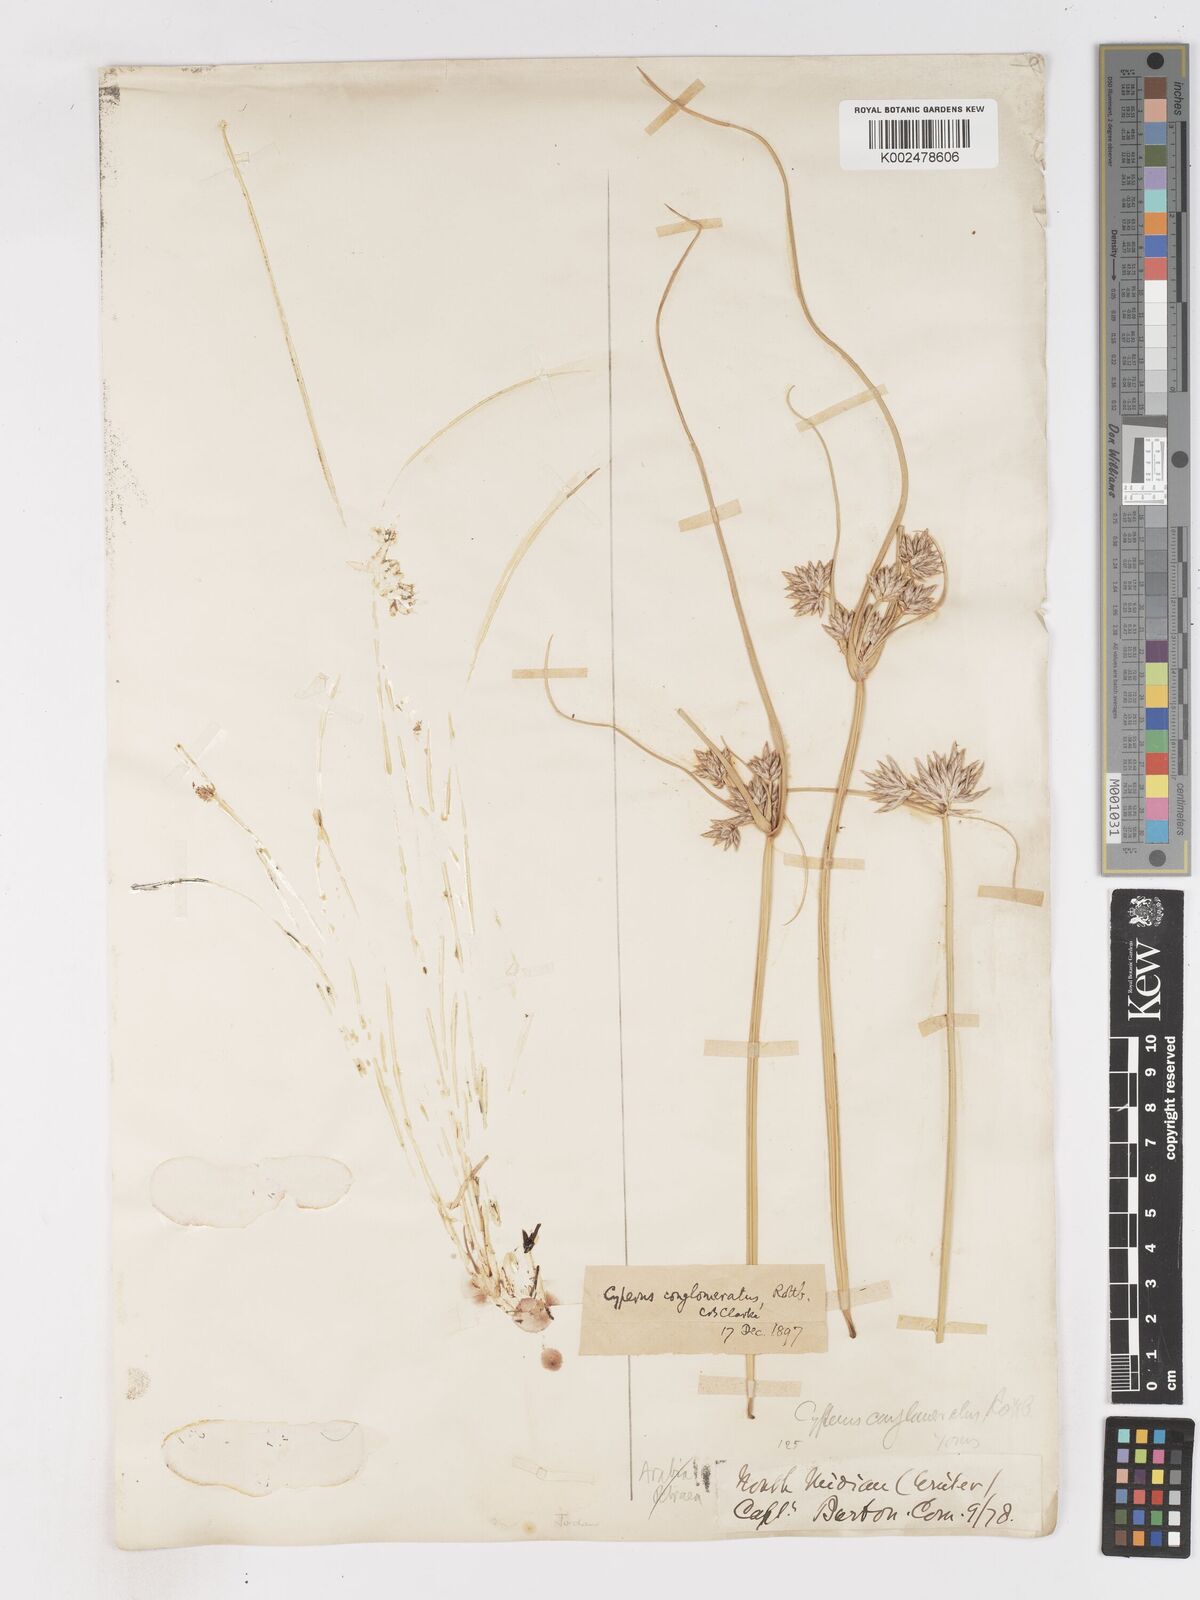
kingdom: Plantae
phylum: Tracheophyta
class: Liliopsida
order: Poales
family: Cyperaceae
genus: Cyperus
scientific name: Cyperus conglomeratus
